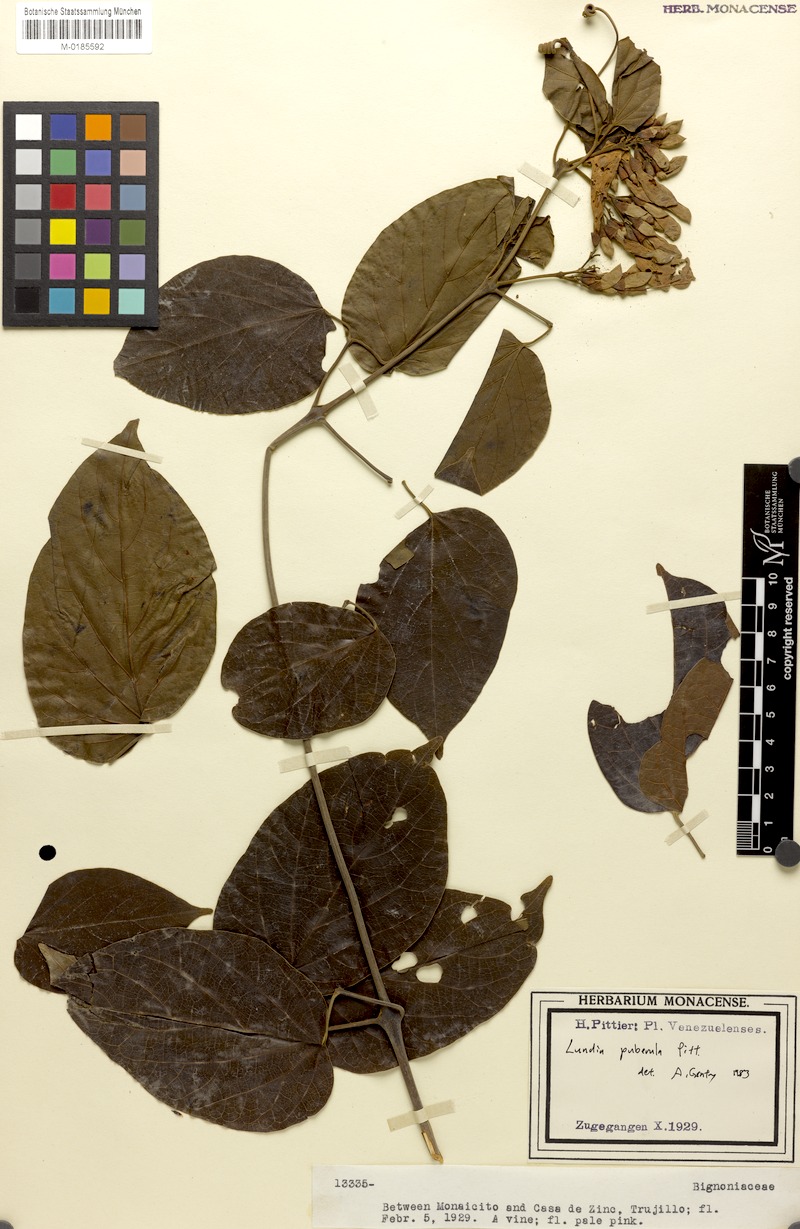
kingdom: Plantae
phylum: Tracheophyta
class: Magnoliopsida
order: Lamiales
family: Bignoniaceae
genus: Lundia
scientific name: Lundia puberula
